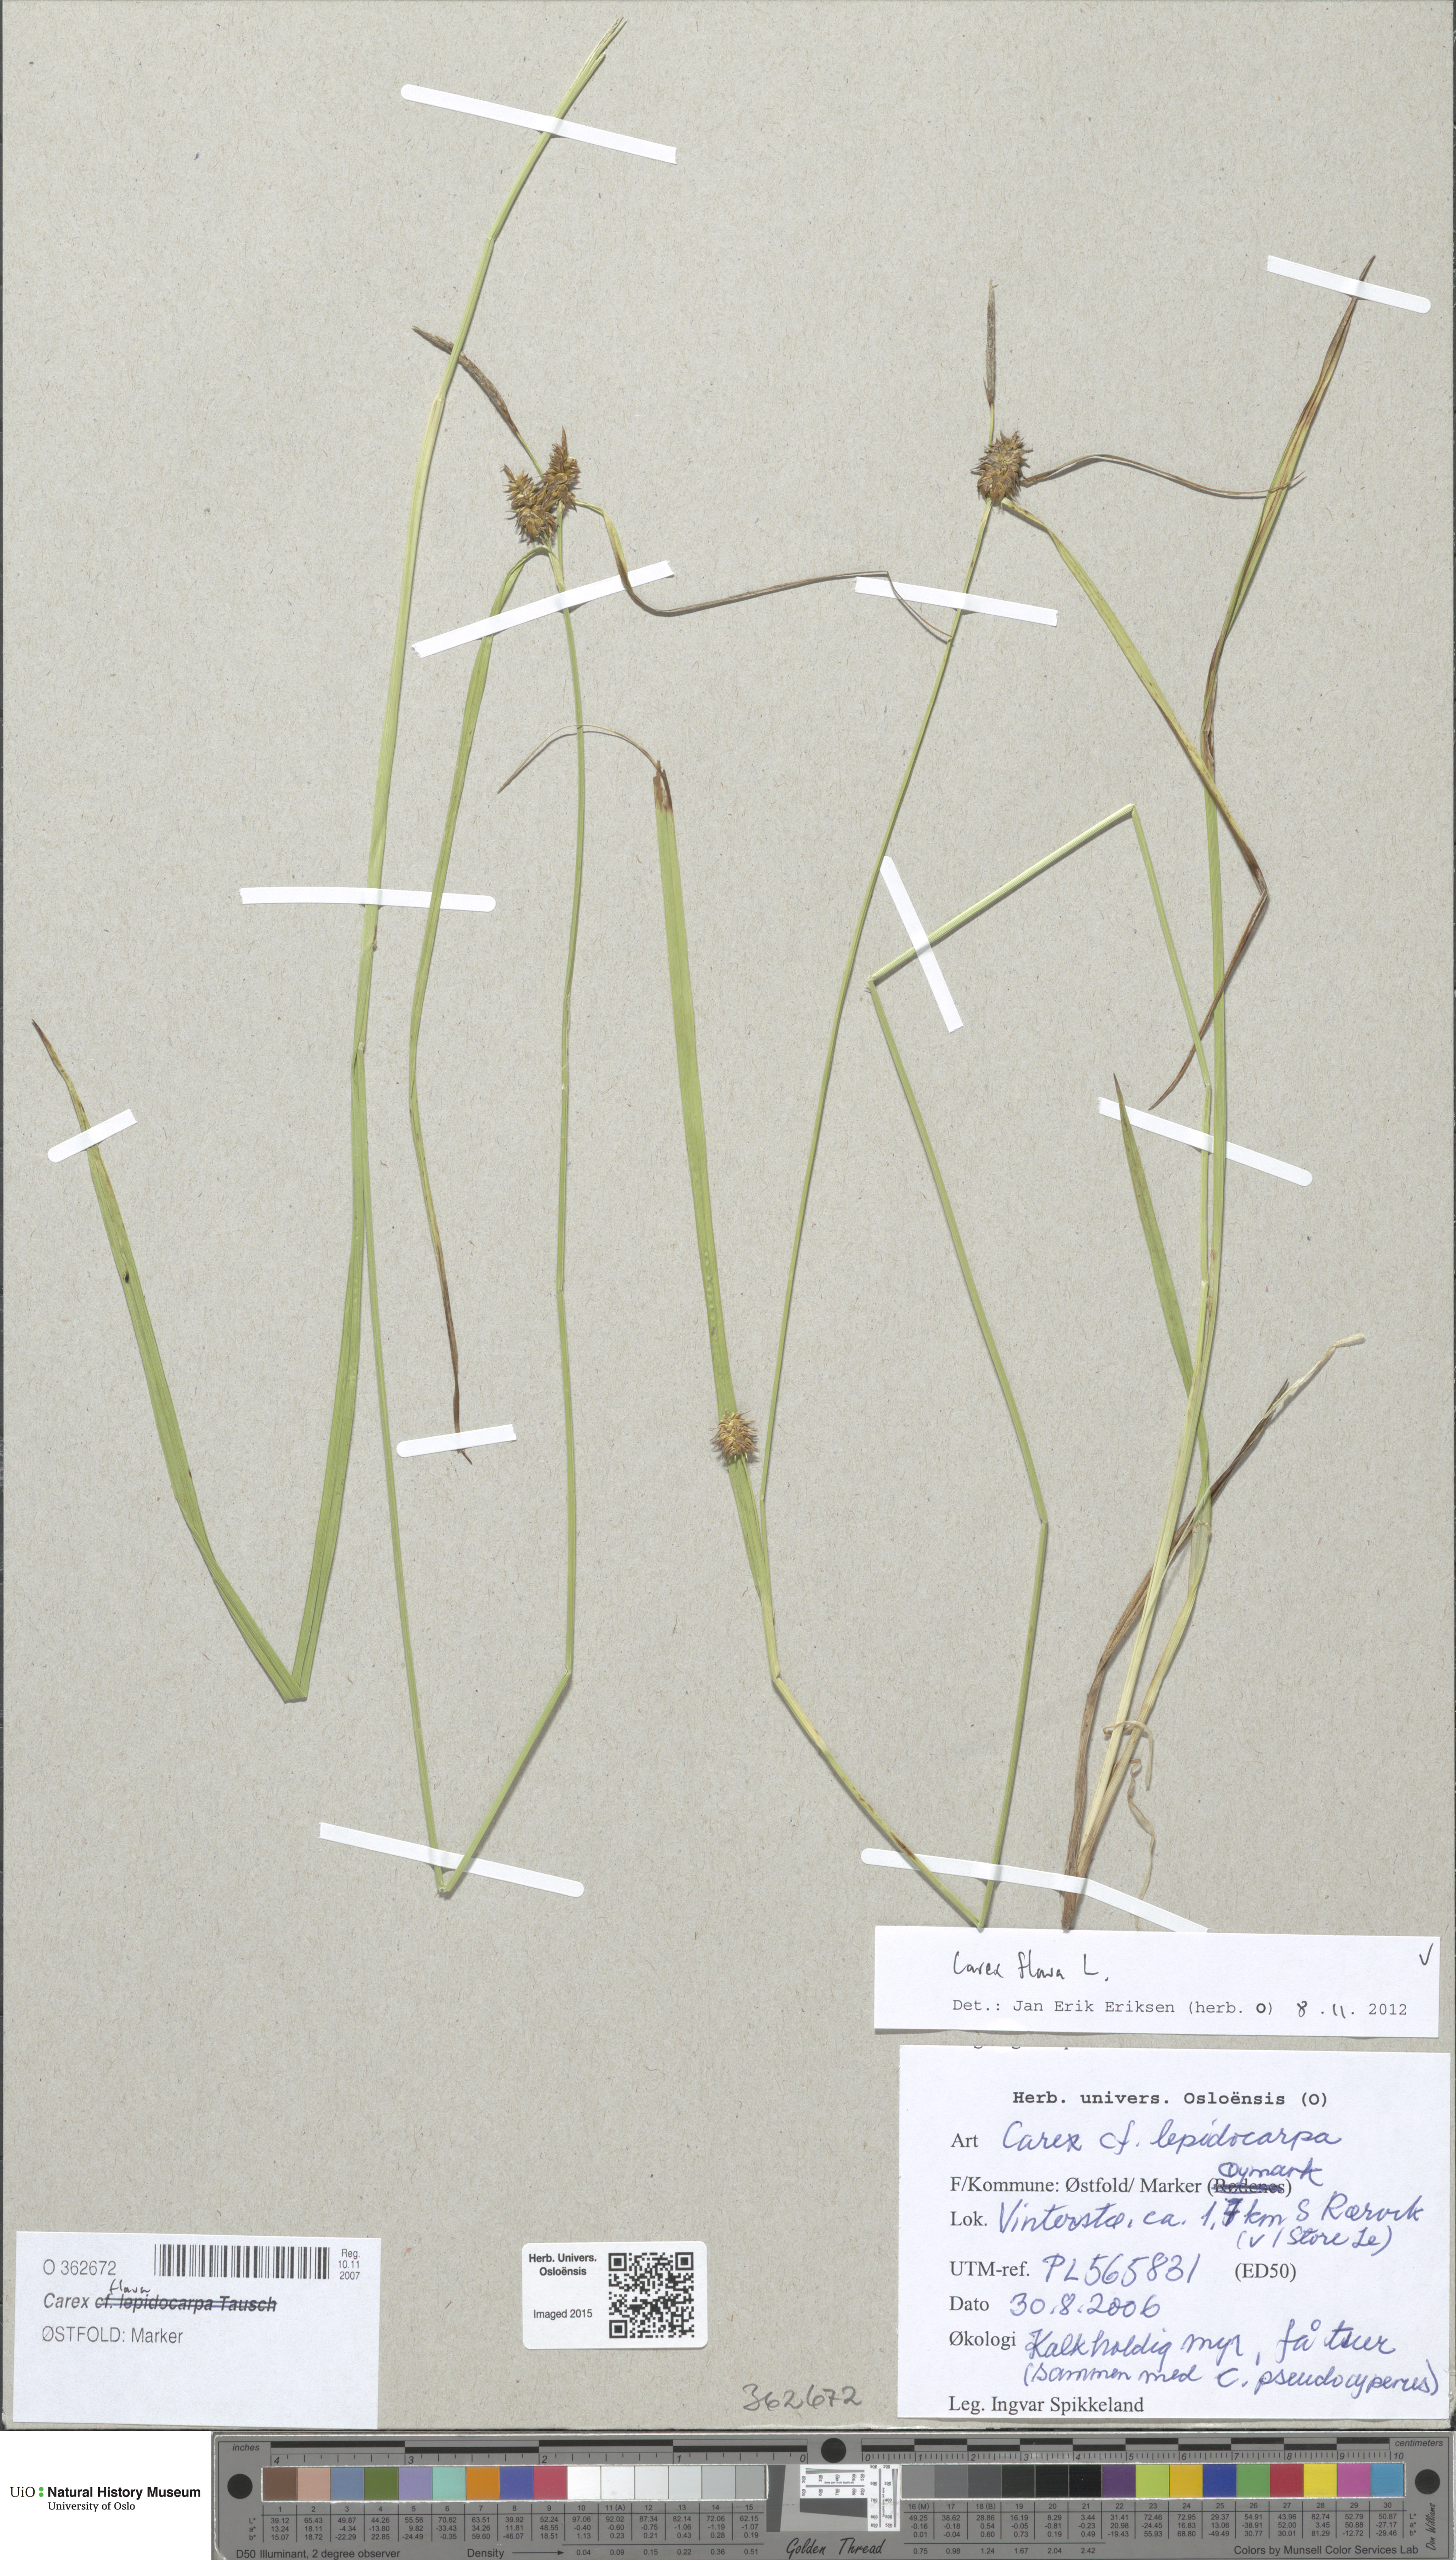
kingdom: Plantae
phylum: Tracheophyta
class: Liliopsida
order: Poales
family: Cyperaceae
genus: Carex
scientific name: Carex flava
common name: Large yellow-sedge
